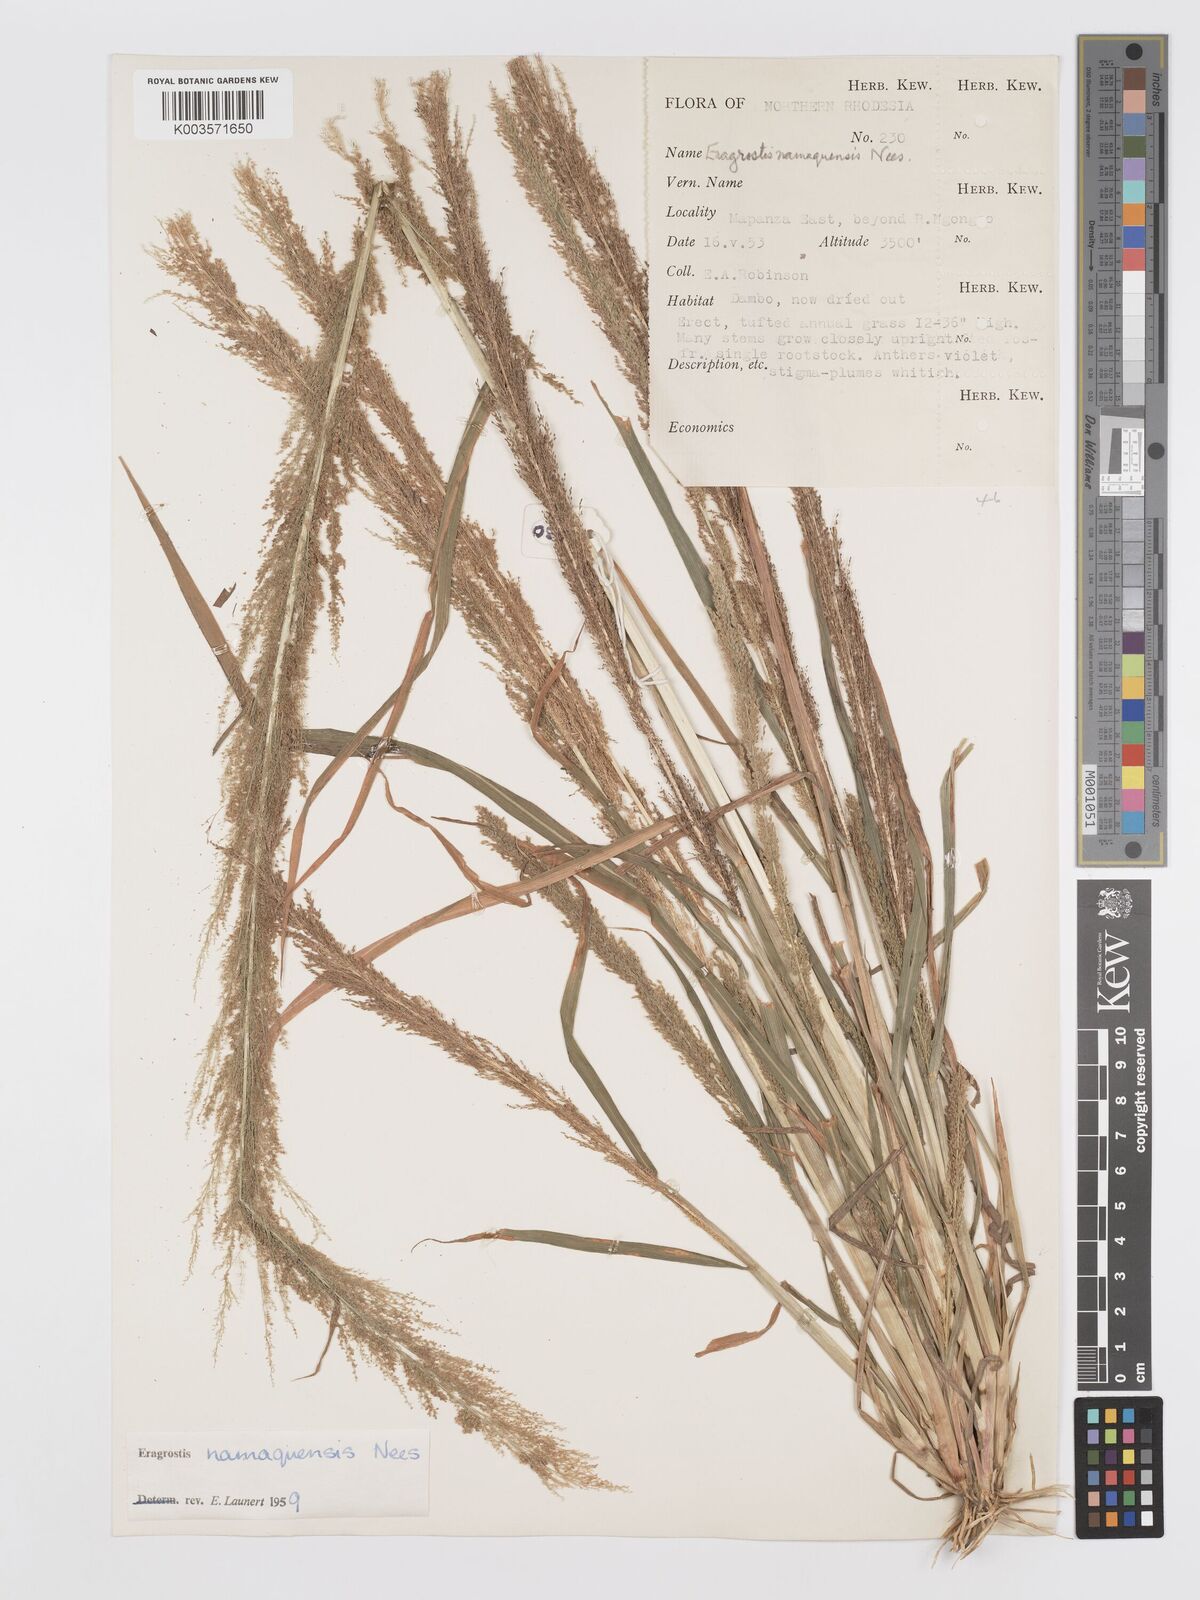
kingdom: Plantae
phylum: Tracheophyta
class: Liliopsida
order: Poales
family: Poaceae
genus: Eragrostis
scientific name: Eragrostis japonica
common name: Pond lovegrass
